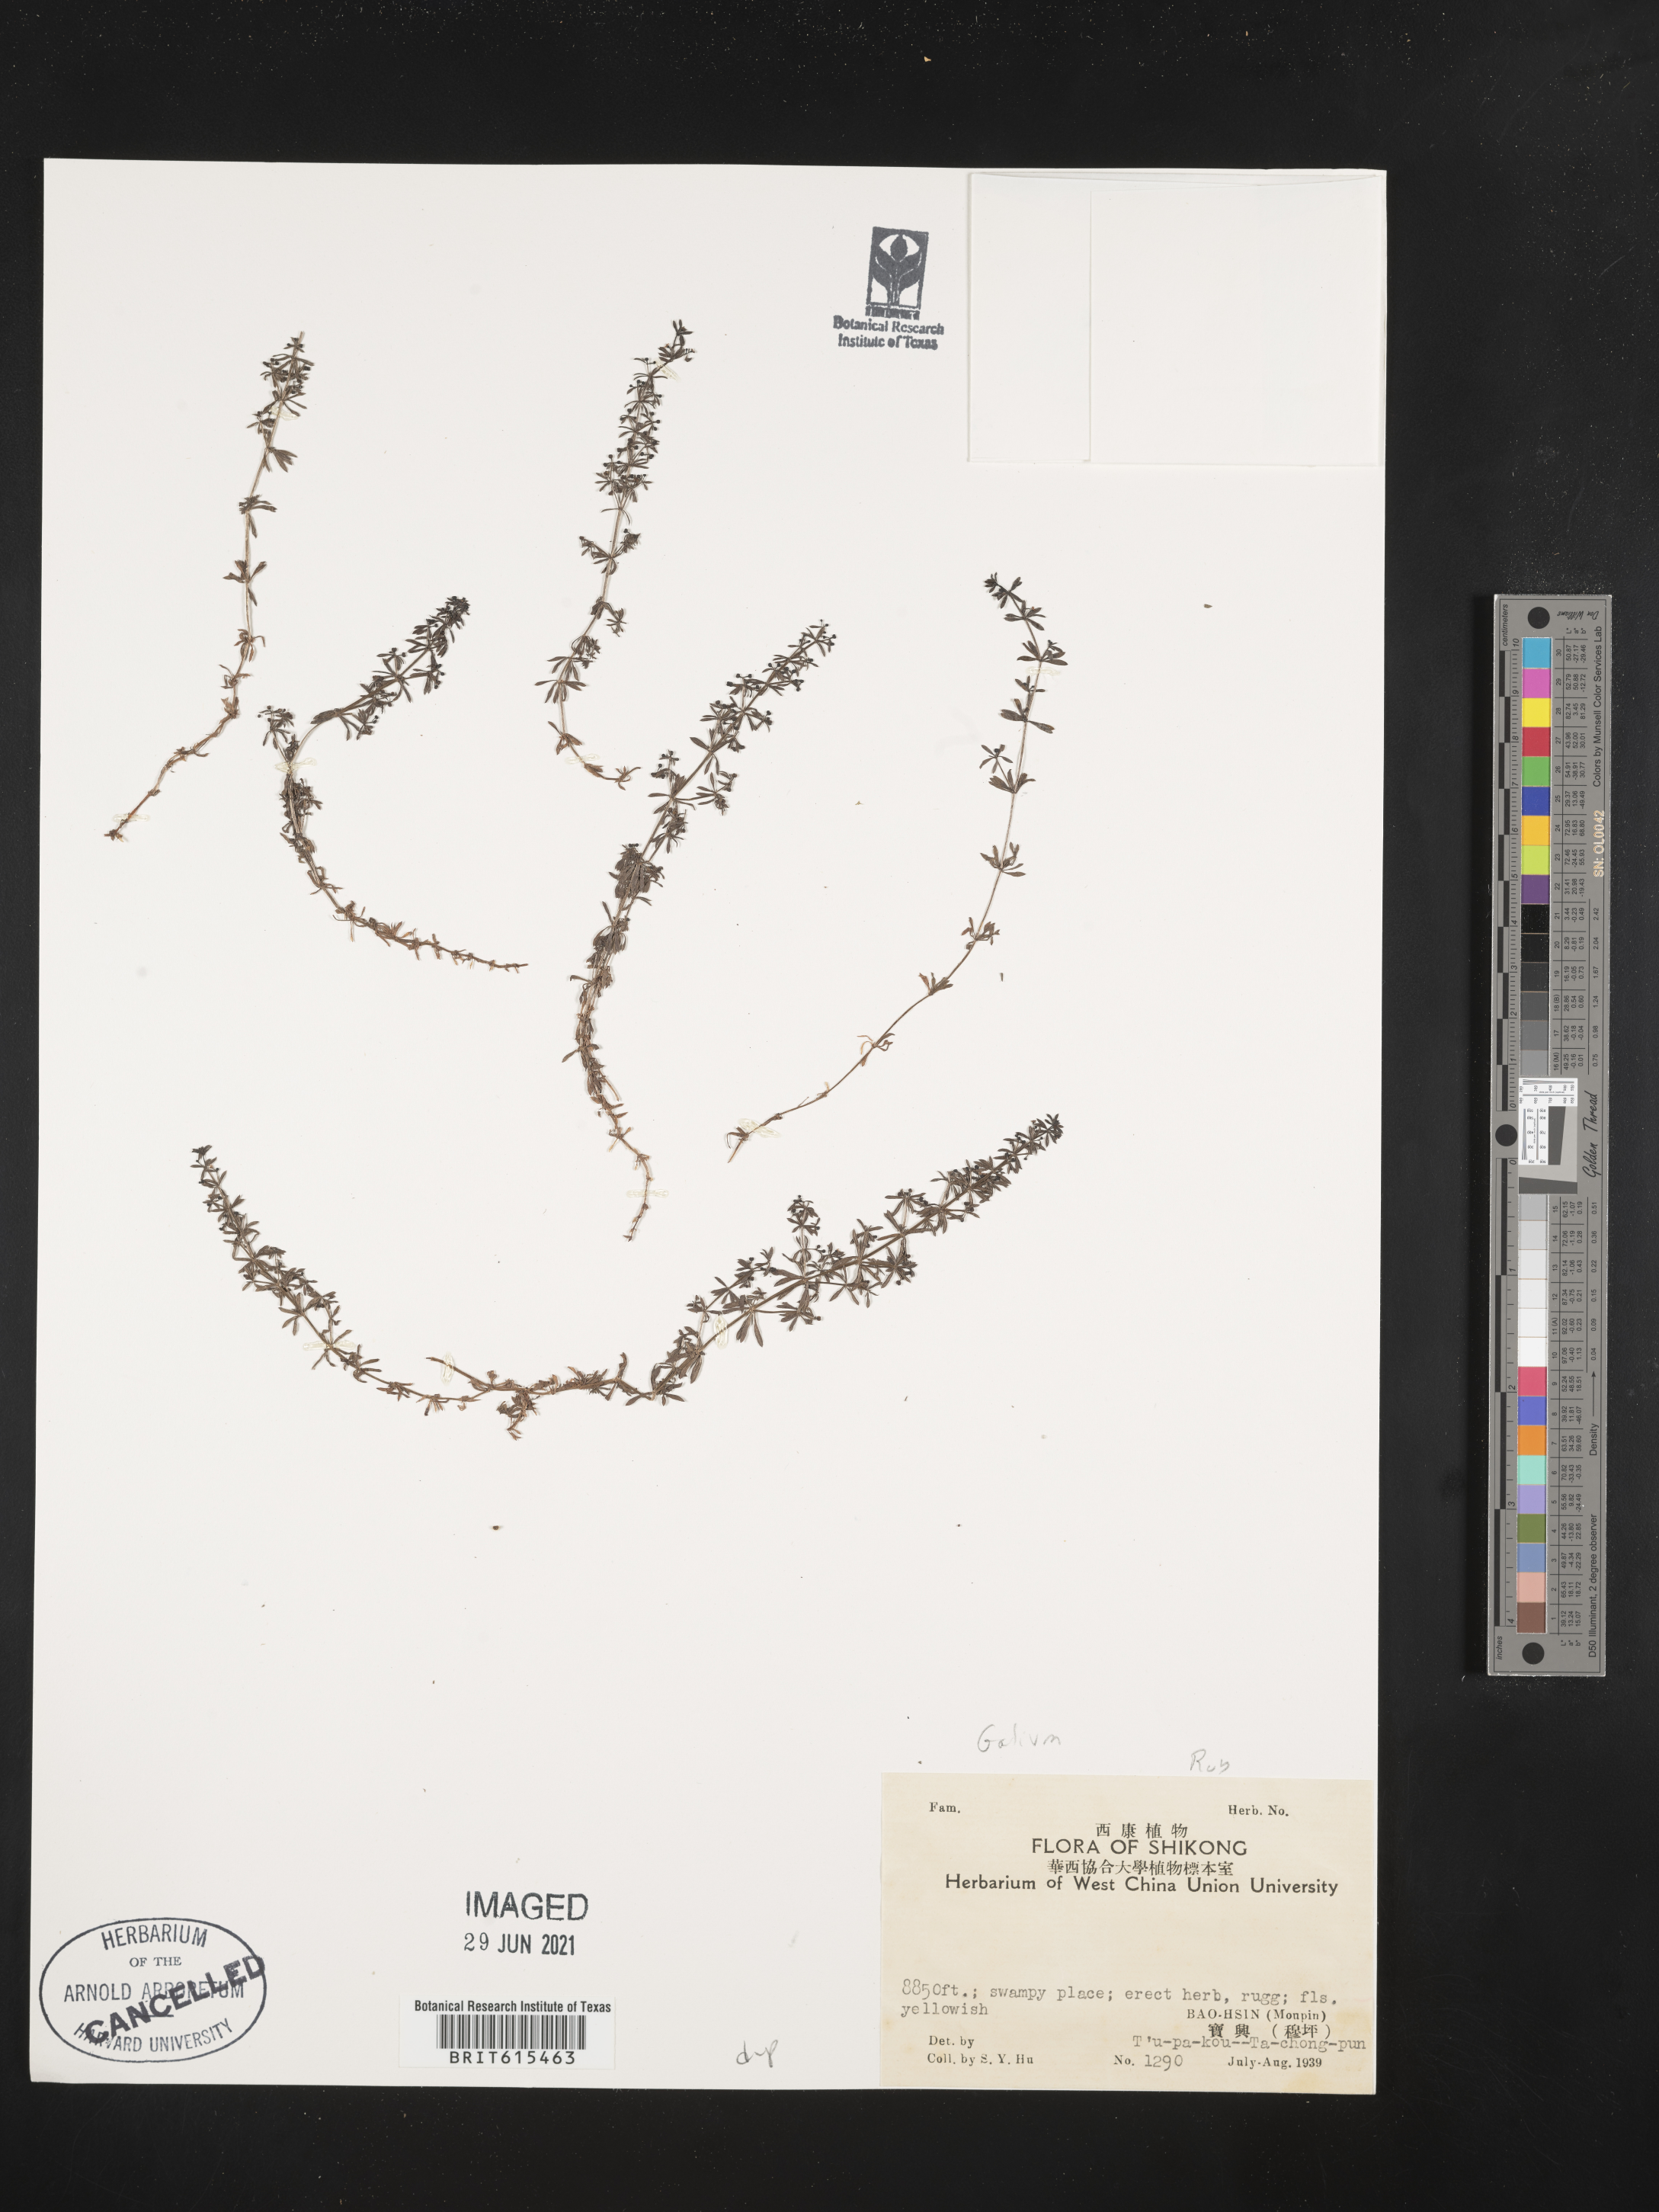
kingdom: Plantae
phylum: Tracheophyta
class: Magnoliopsida
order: Gentianales
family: Rubiaceae
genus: Galium
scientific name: Galium
